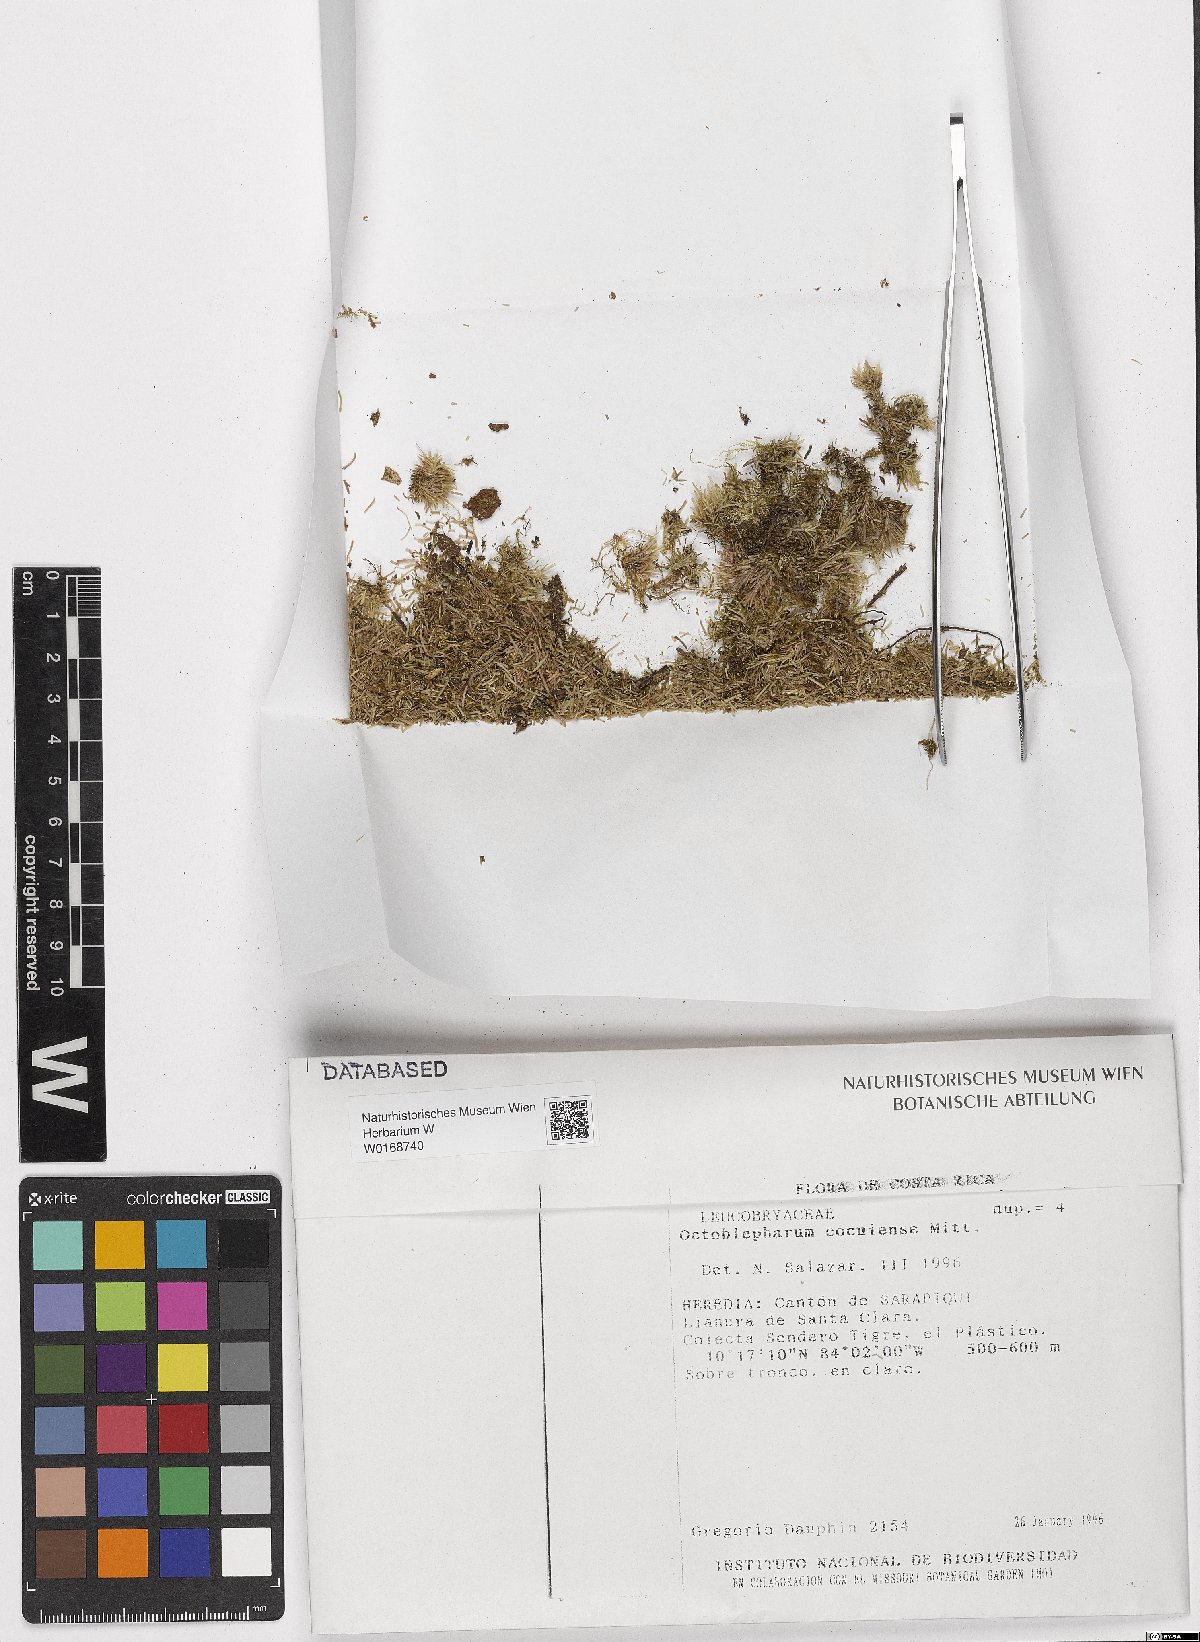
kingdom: Plantae
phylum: Bryophyta
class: Bryopsida
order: Dicranales
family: Octoblepharaceae
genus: Octoblepharum
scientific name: Octoblepharum cocuiense
